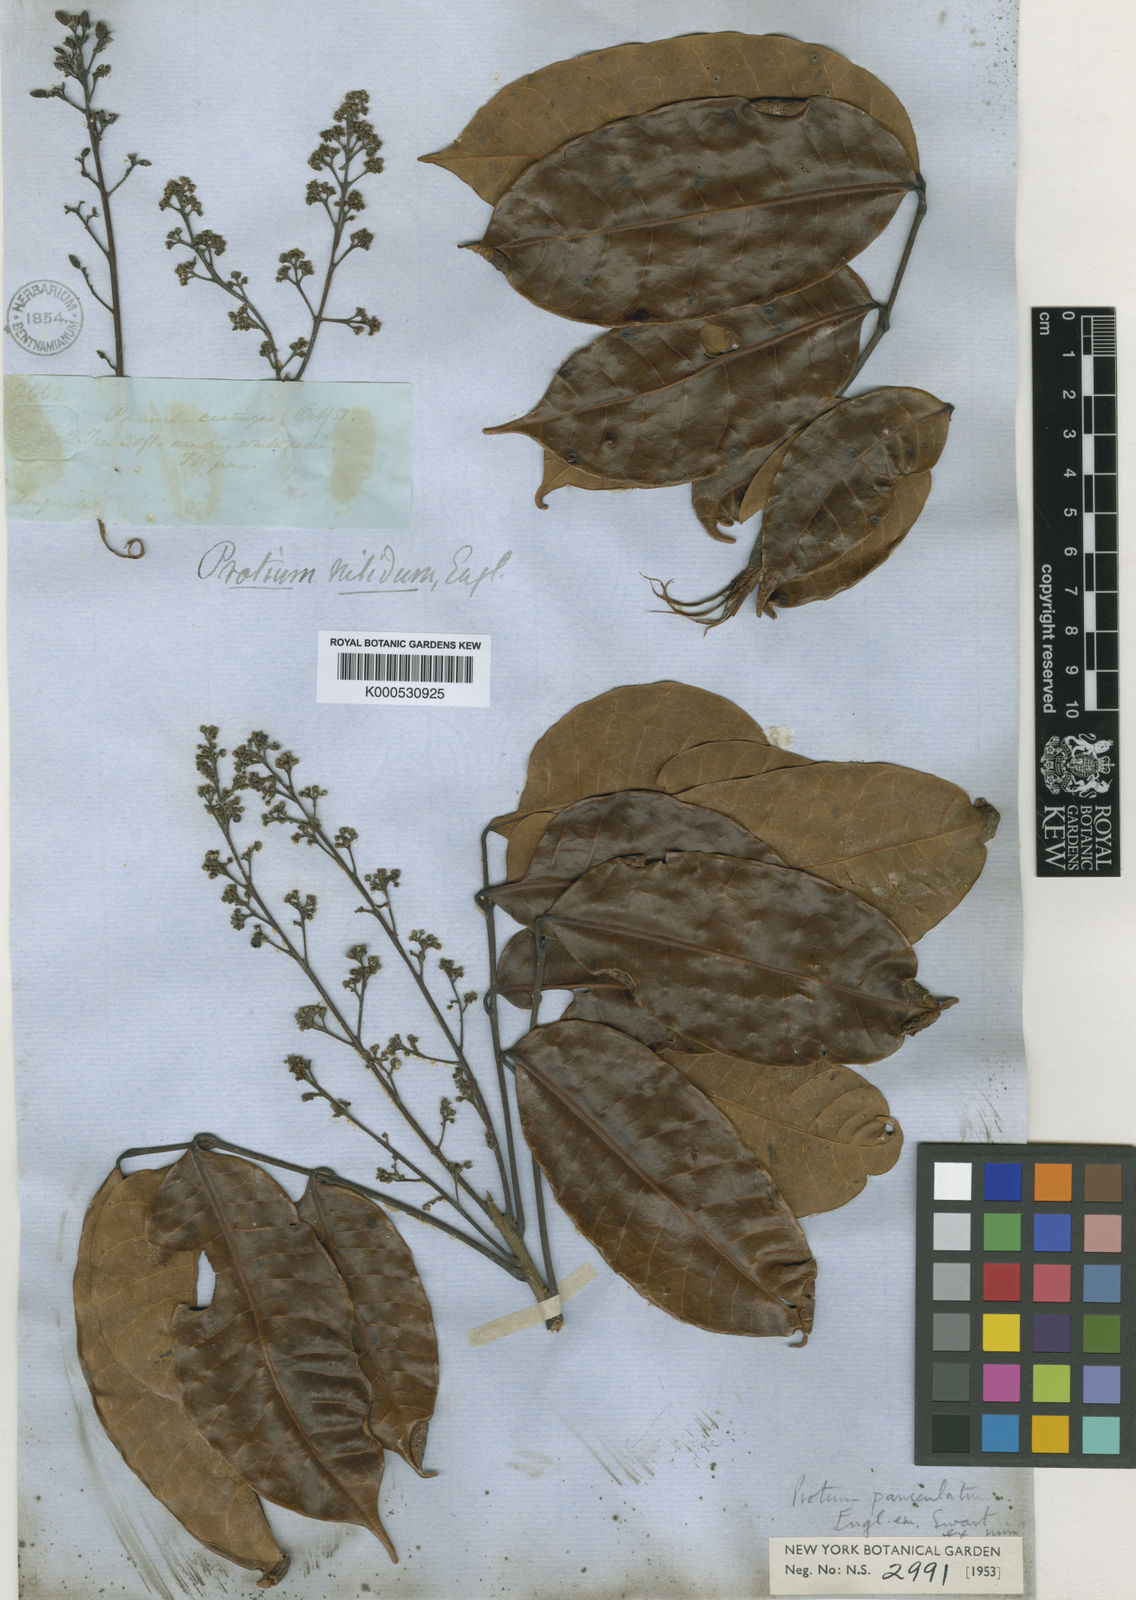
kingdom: Plantae
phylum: Tracheophyta
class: Magnoliopsida
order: Sapindales
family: Burseraceae
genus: Protium
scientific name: Protium paniculatum
